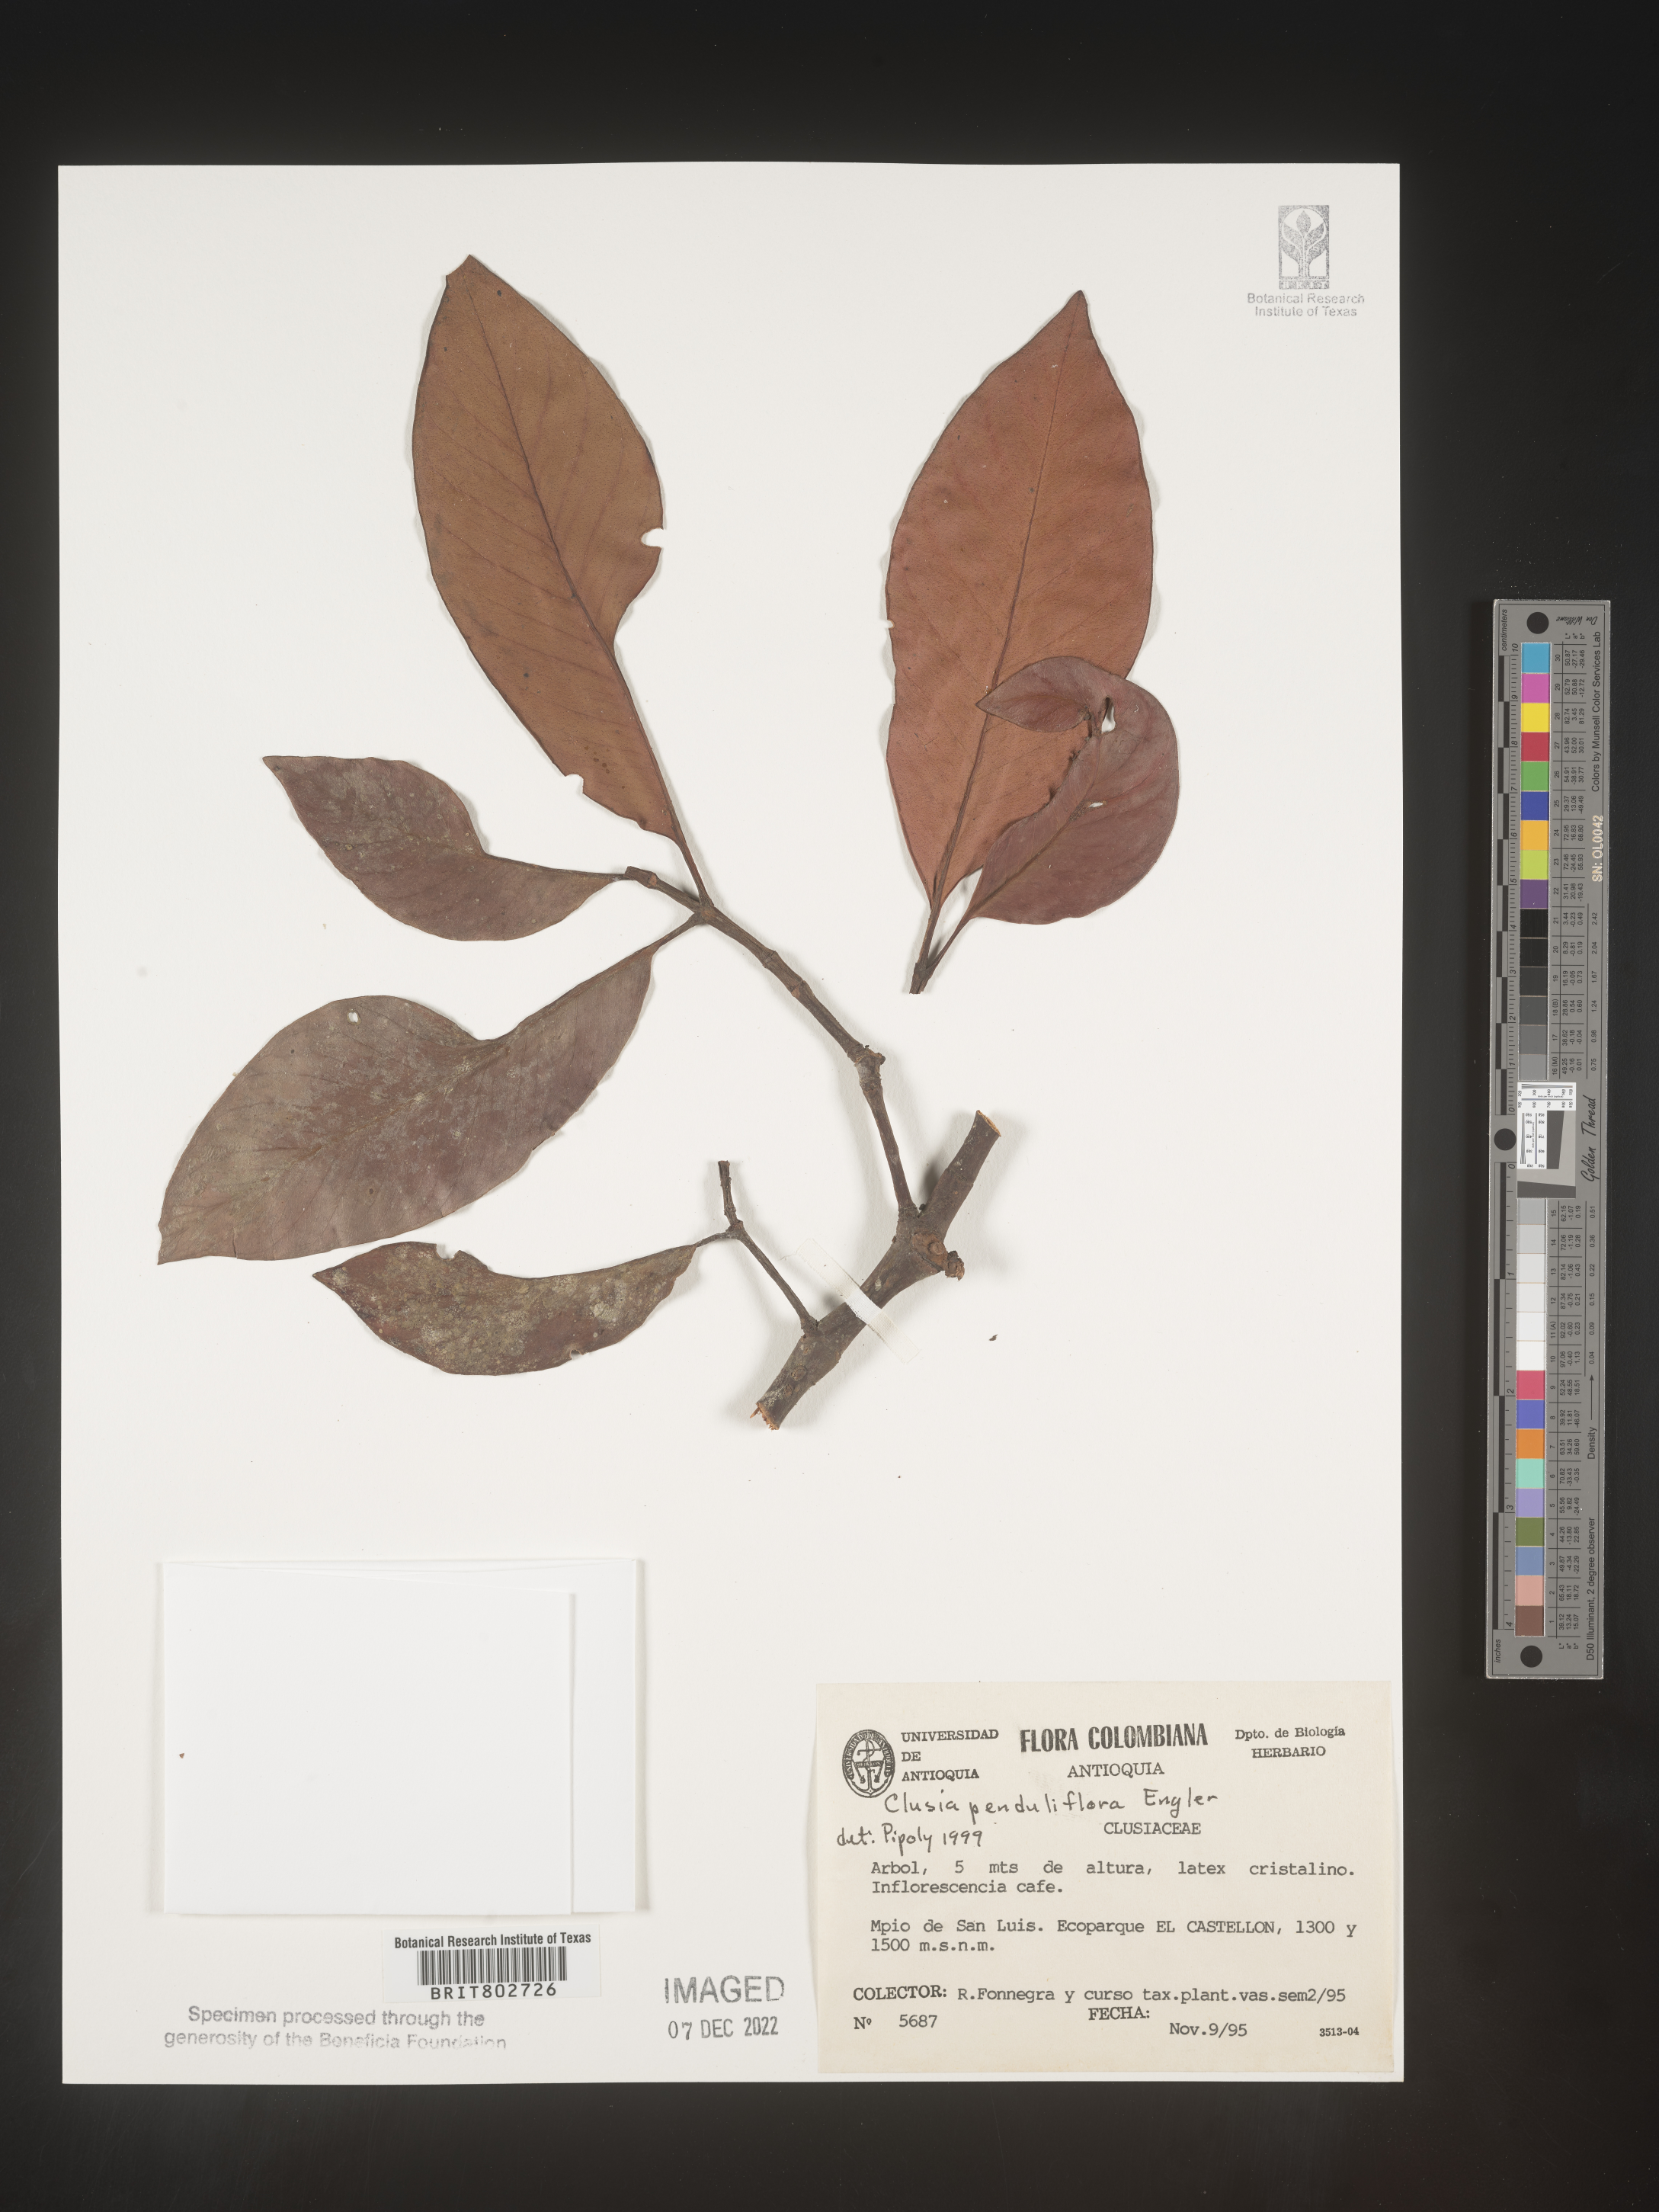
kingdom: Plantae
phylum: Tracheophyta
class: Magnoliopsida
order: Malpighiales
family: Clusiaceae
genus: Clusia
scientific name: Clusia
